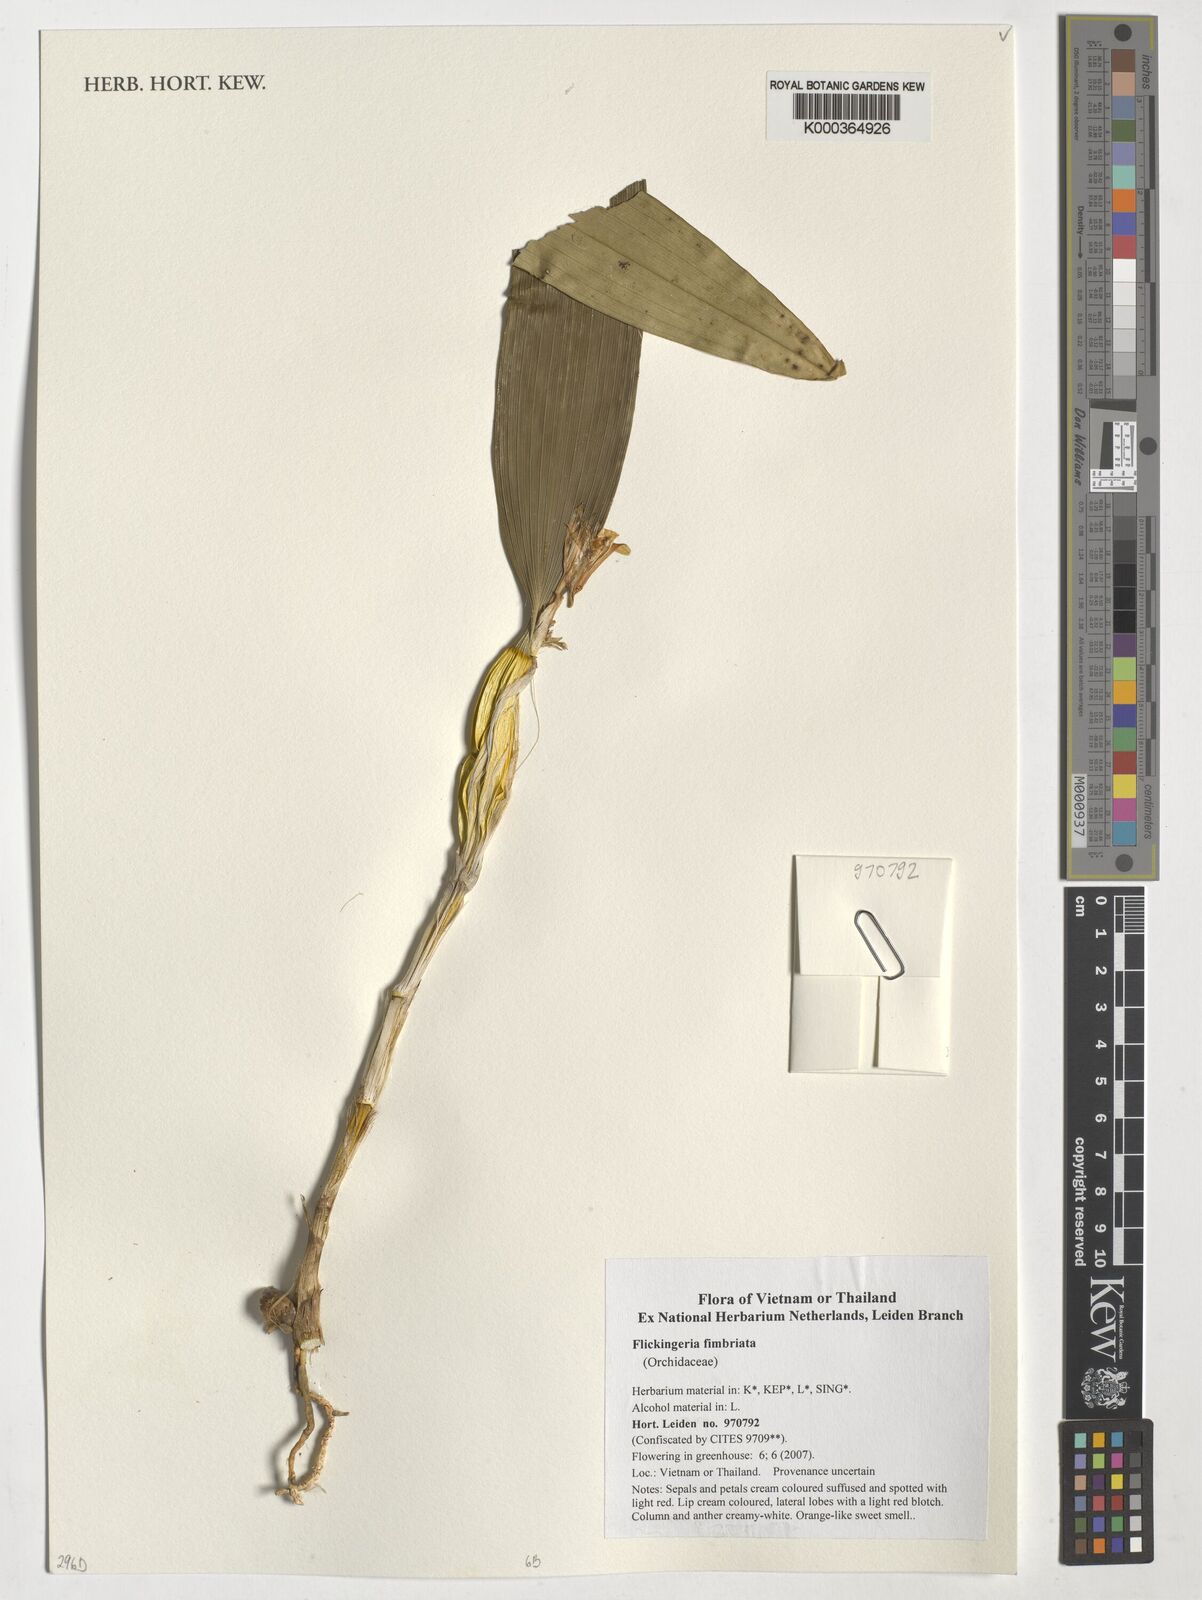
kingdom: Plantae
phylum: Tracheophyta
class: Liliopsida
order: Asparagales
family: Orchidaceae
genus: Dendrobium
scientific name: Dendrobium plicatile
